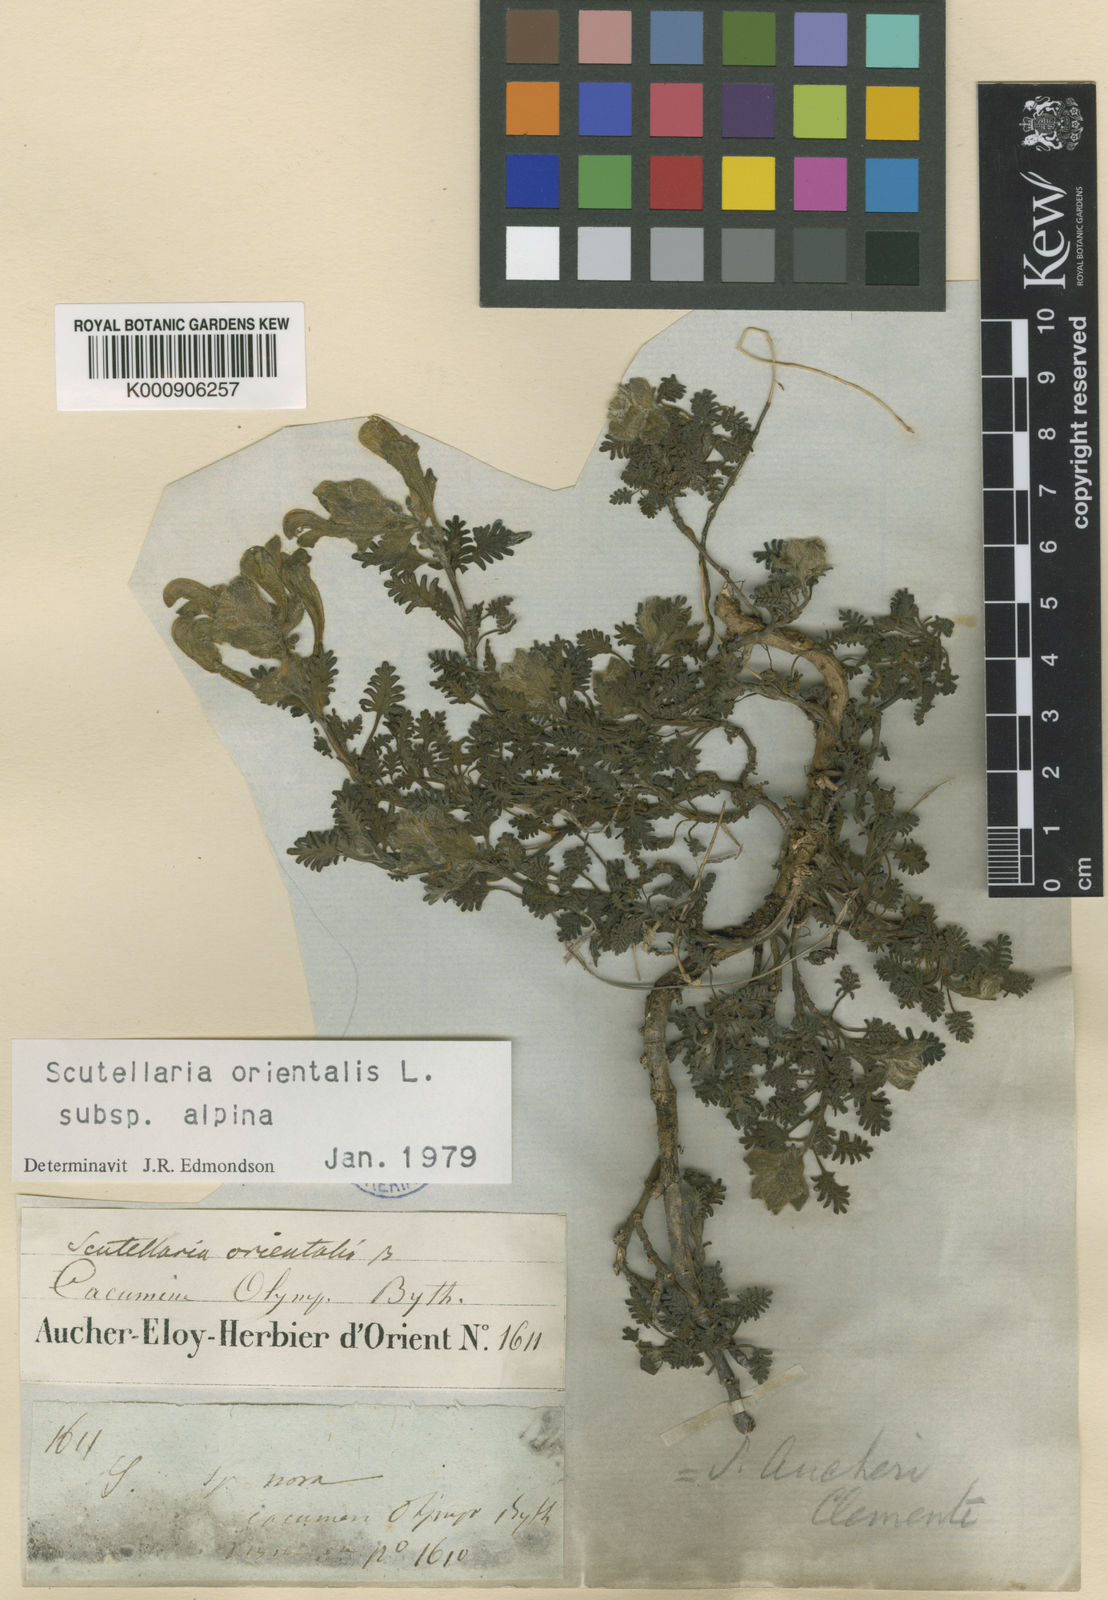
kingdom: Plantae
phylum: Tracheophyta
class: Magnoliopsida
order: Lamiales
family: Lamiaceae
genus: Scutellaria
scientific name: Scutellaria orientalis
